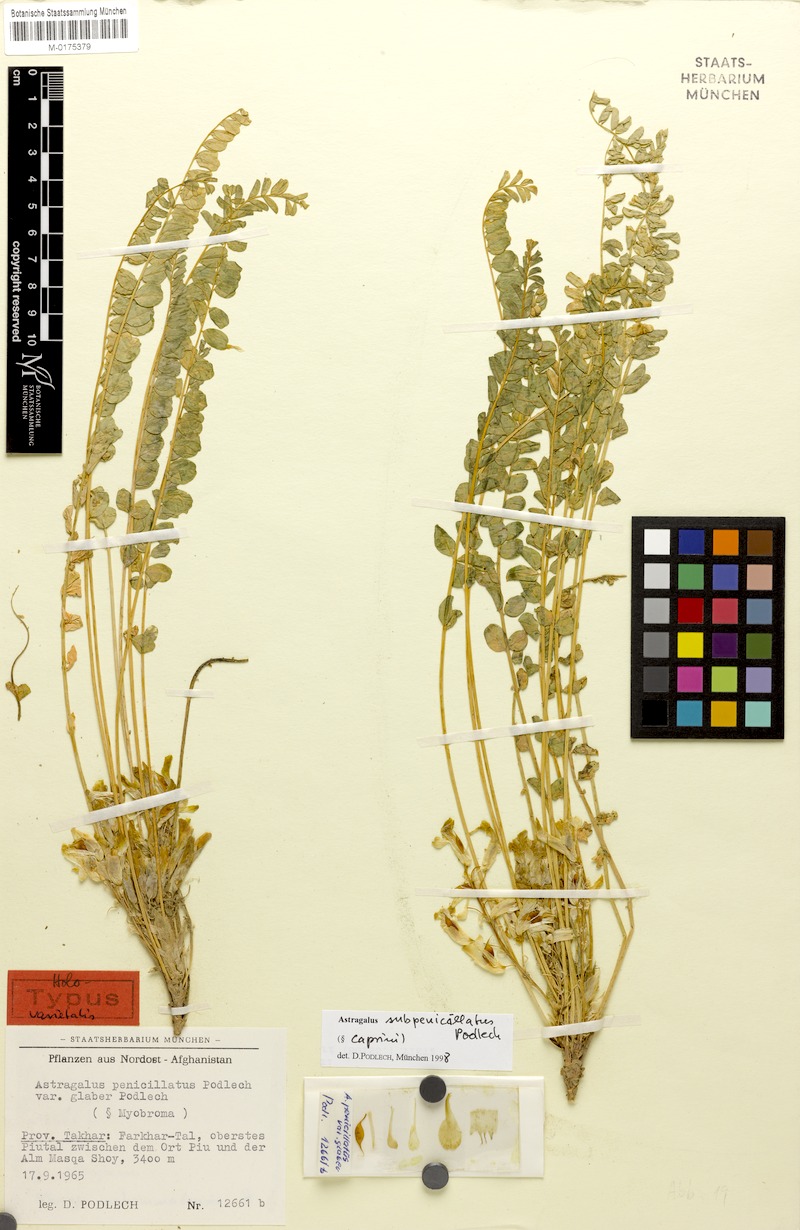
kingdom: Plantae
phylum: Tracheophyta
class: Magnoliopsida
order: Fabales
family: Fabaceae
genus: Astragalus
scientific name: Astragalus subpenicillatus
